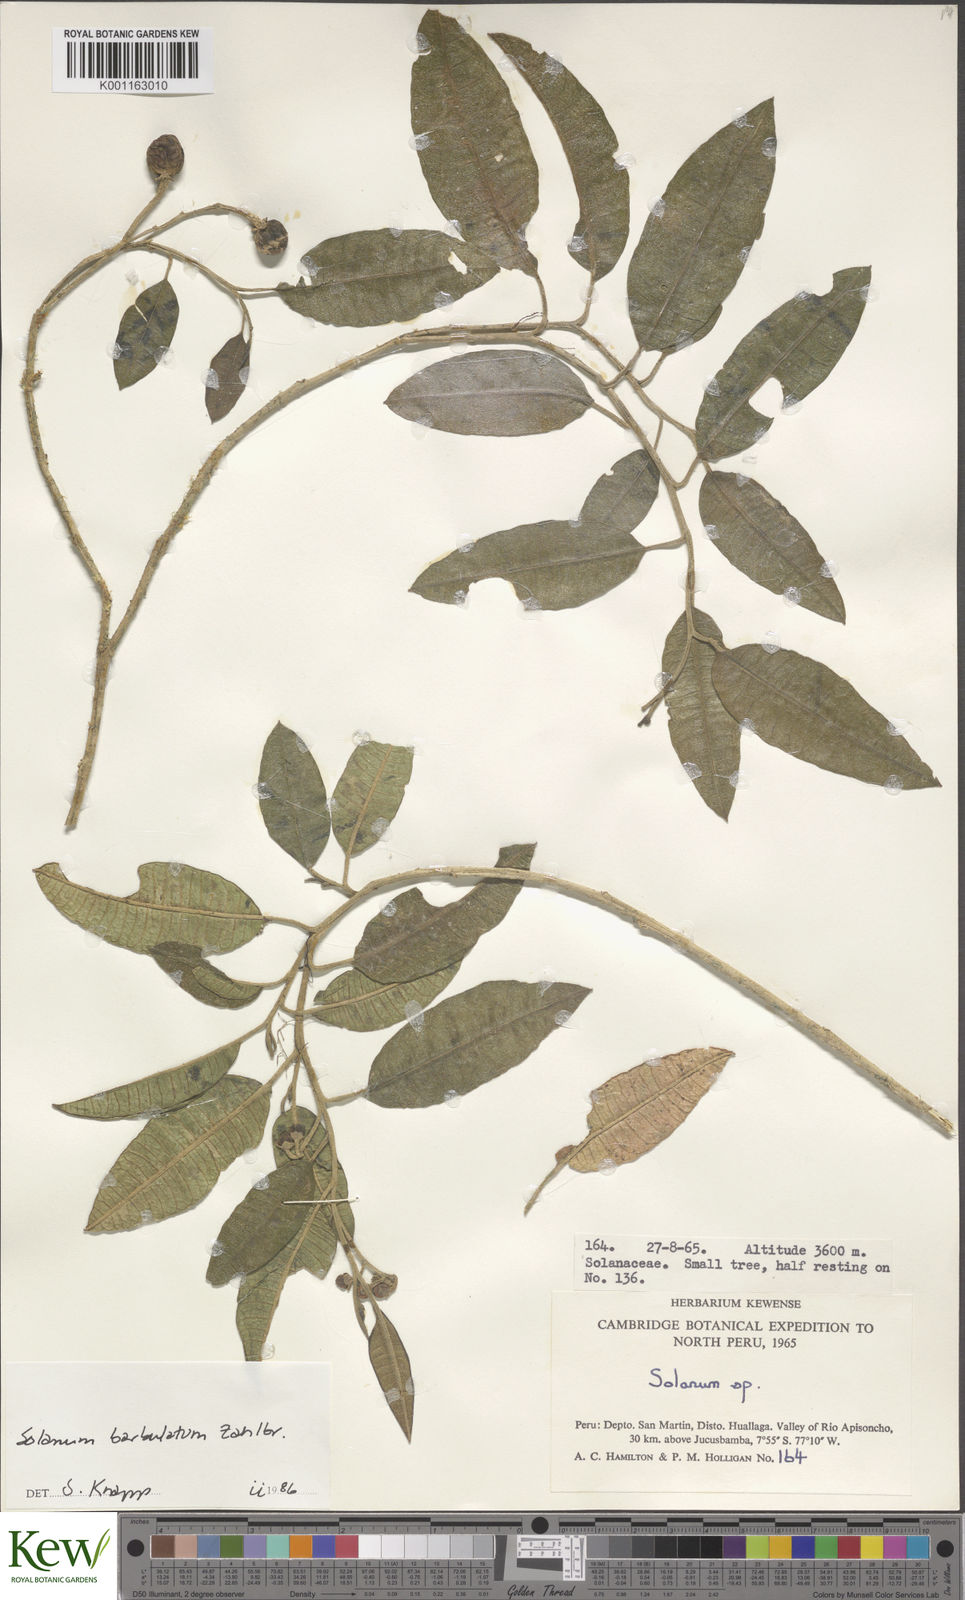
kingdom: Plantae
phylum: Tracheophyta
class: Magnoliopsida
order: Solanales
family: Solanaceae
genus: Solanum
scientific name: Solanum barbulatum
